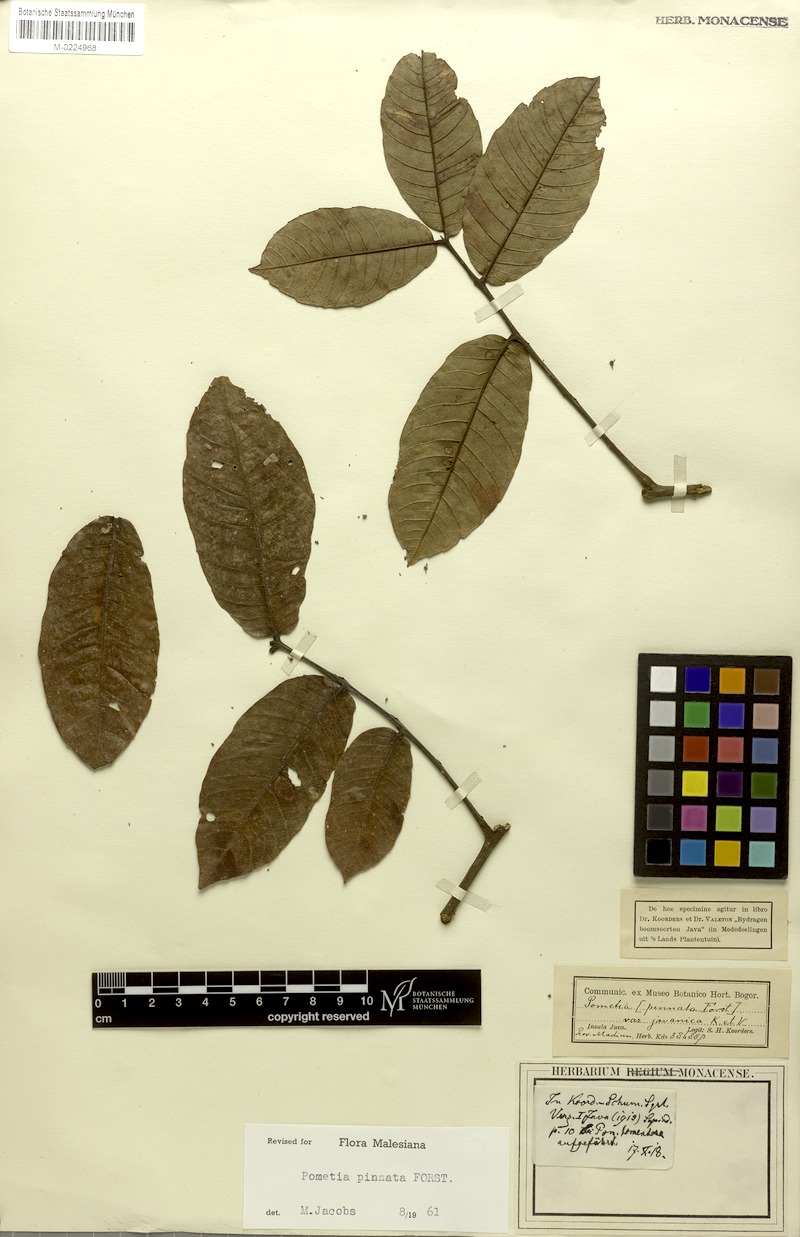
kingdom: Plantae
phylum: Tracheophyta
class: Magnoliopsida
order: Sapindales
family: Sapindaceae
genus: Pometia
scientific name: Pometia pinnata
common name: Oceanic lychee
